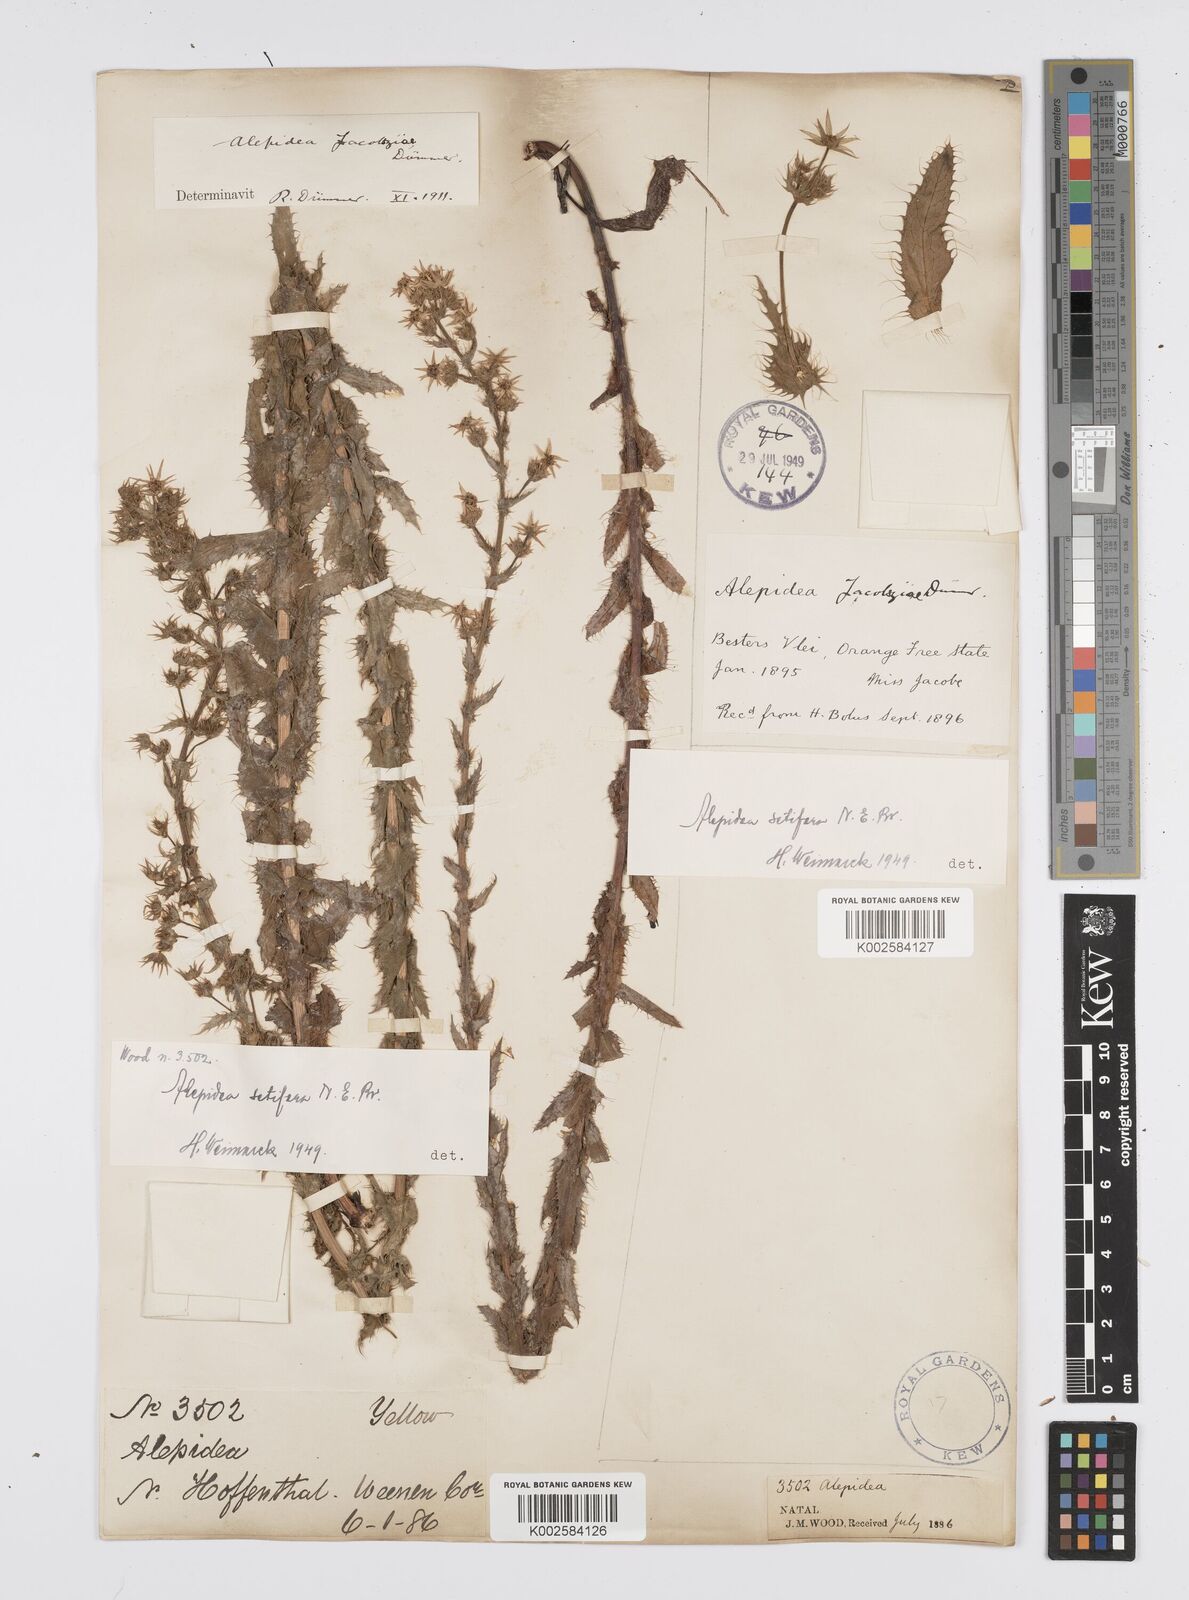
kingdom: Plantae
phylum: Tracheophyta
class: Magnoliopsida
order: Apiales
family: Apiaceae
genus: Alepidea
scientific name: Alepidea setifera
